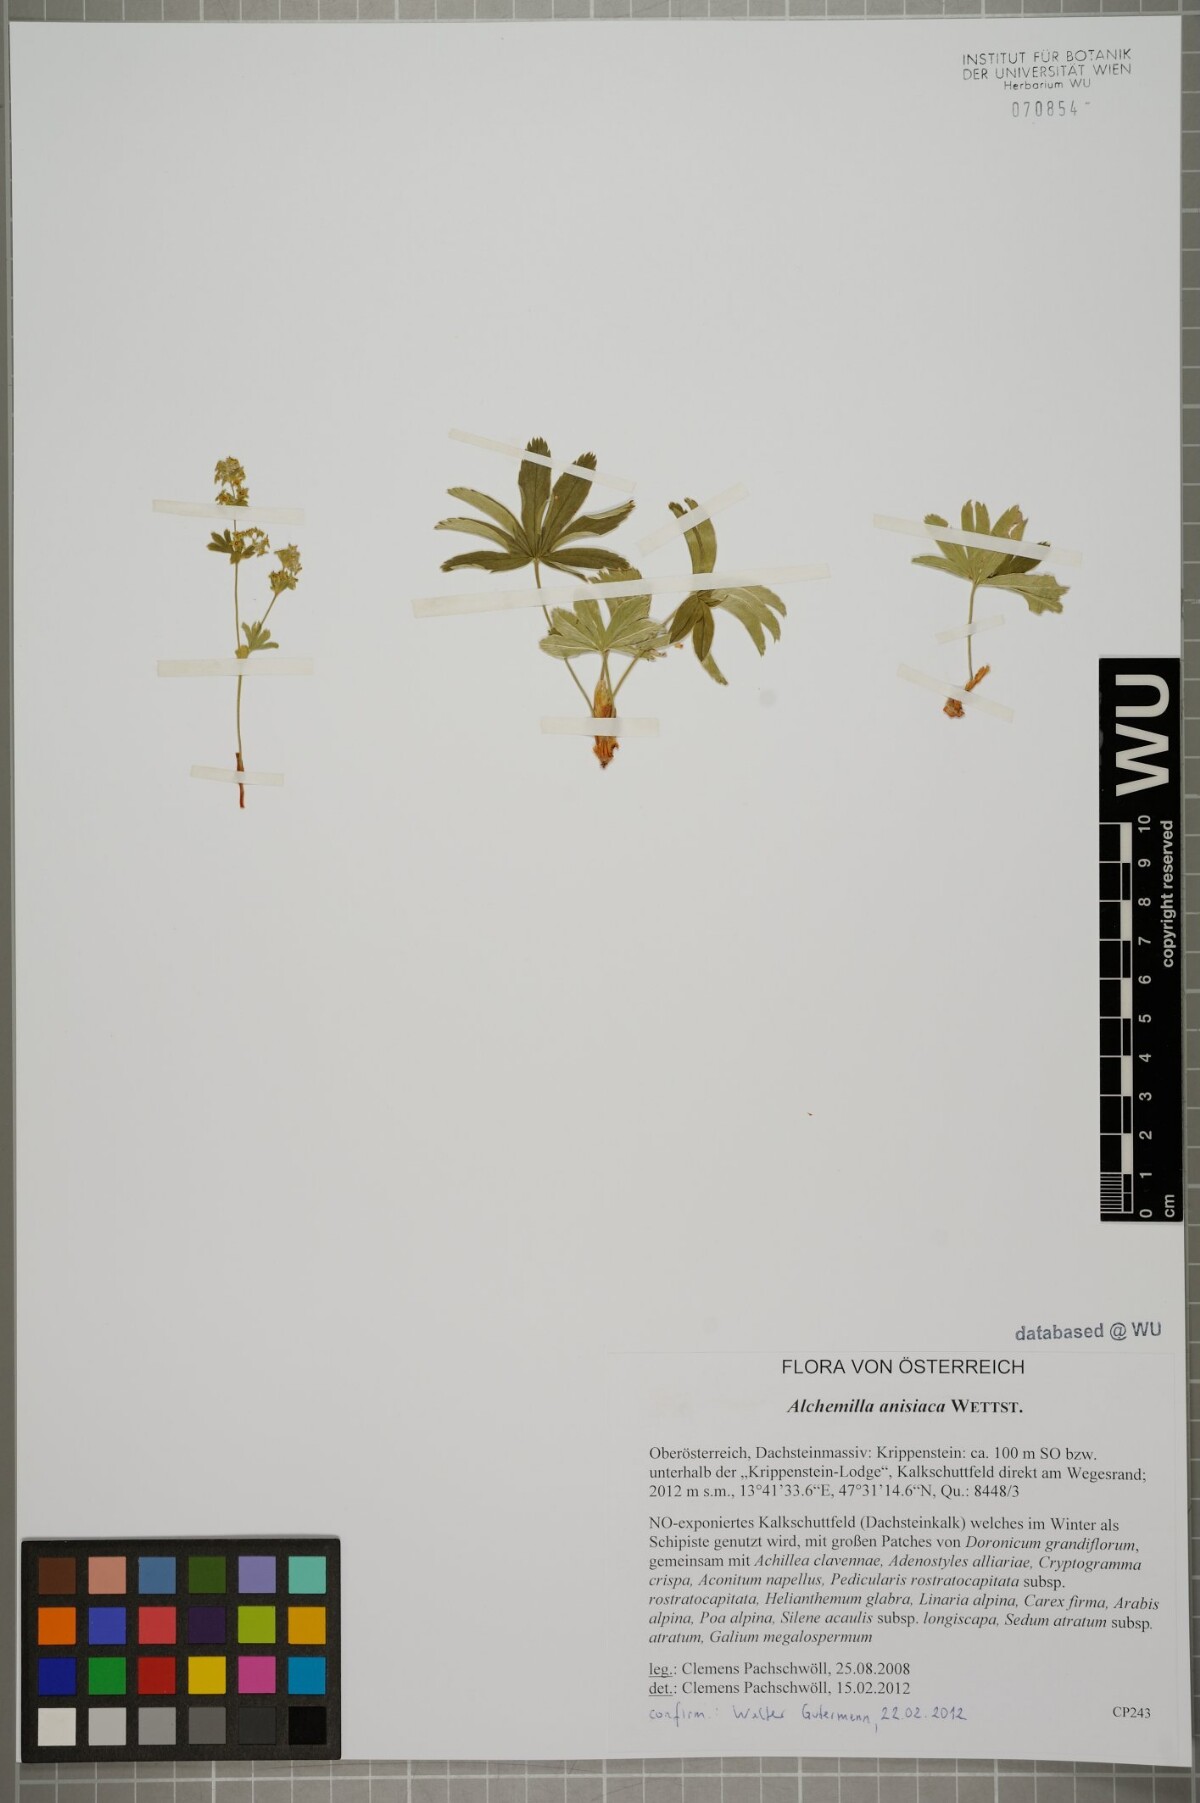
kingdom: Plantae
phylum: Tracheophyta
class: Magnoliopsida
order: Rosales
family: Rosaceae
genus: Alchemilla
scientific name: Alchemilla anisiaca
